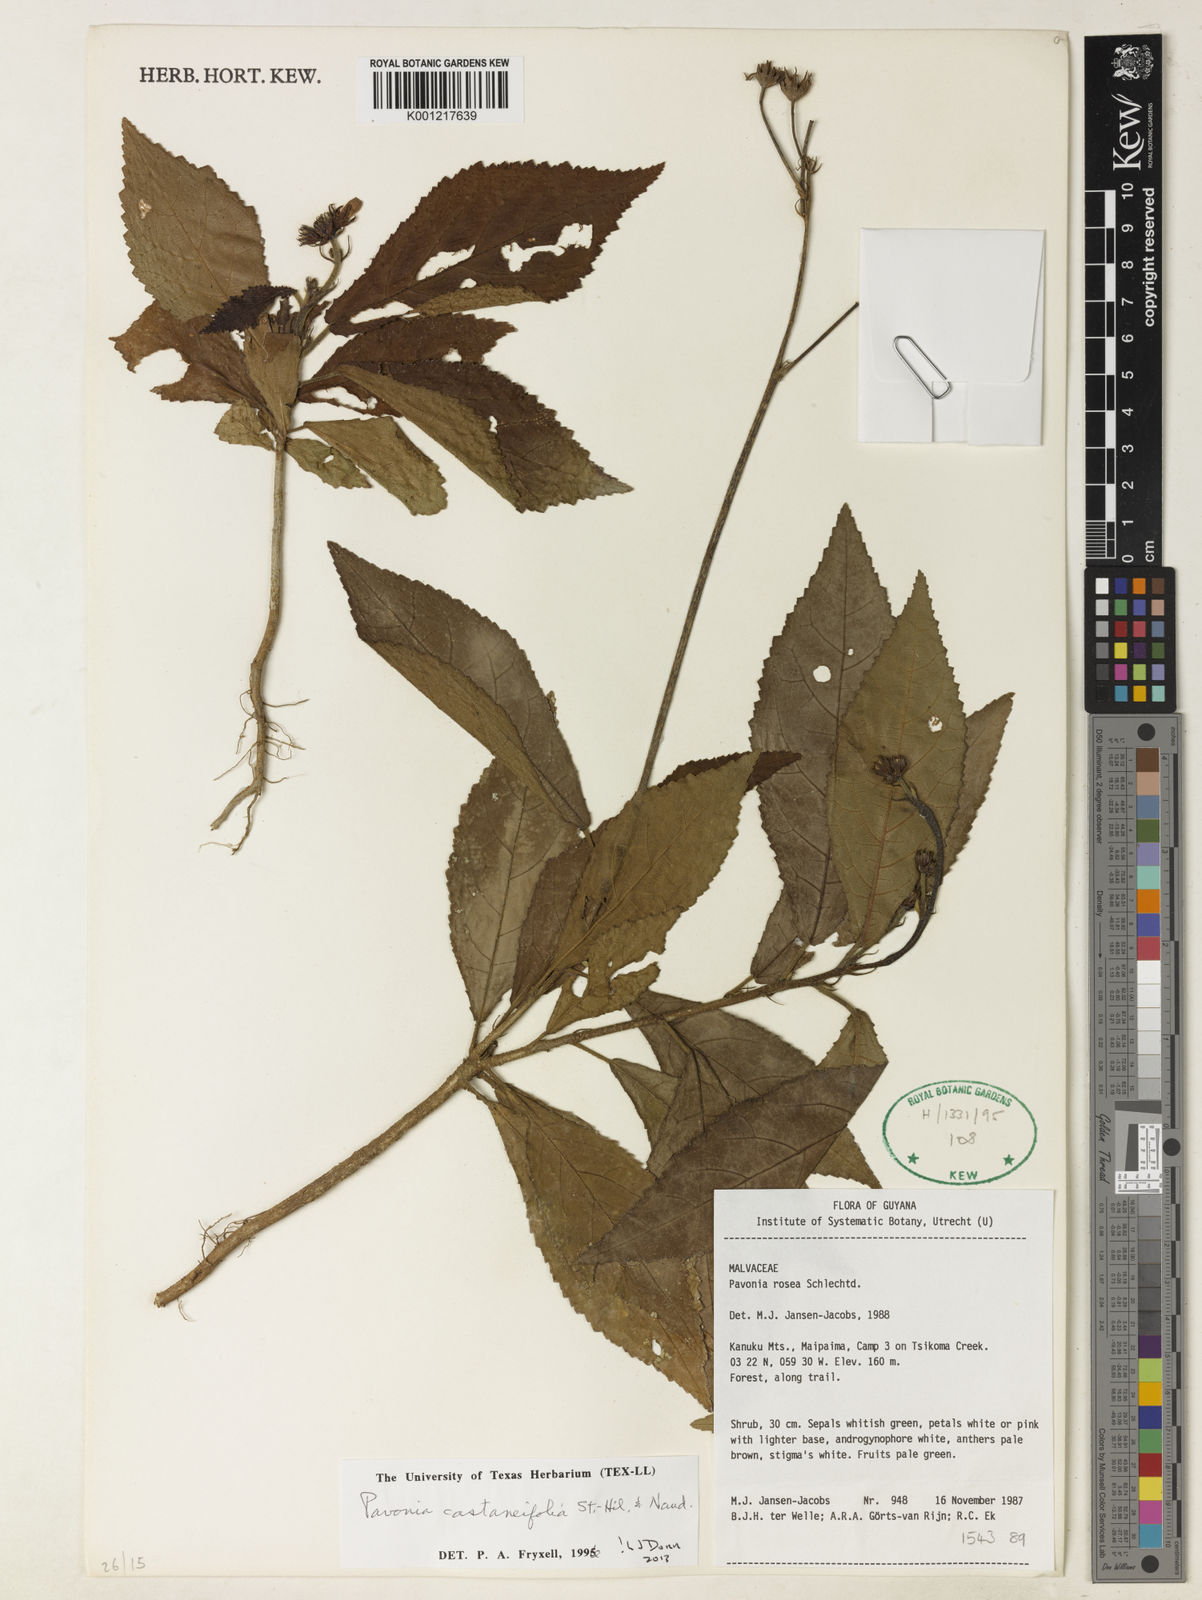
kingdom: Plantae
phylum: Tracheophyta
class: Magnoliopsida
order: Malvales
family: Malvaceae
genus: Pavonia
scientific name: Pavonia castaneifolia
